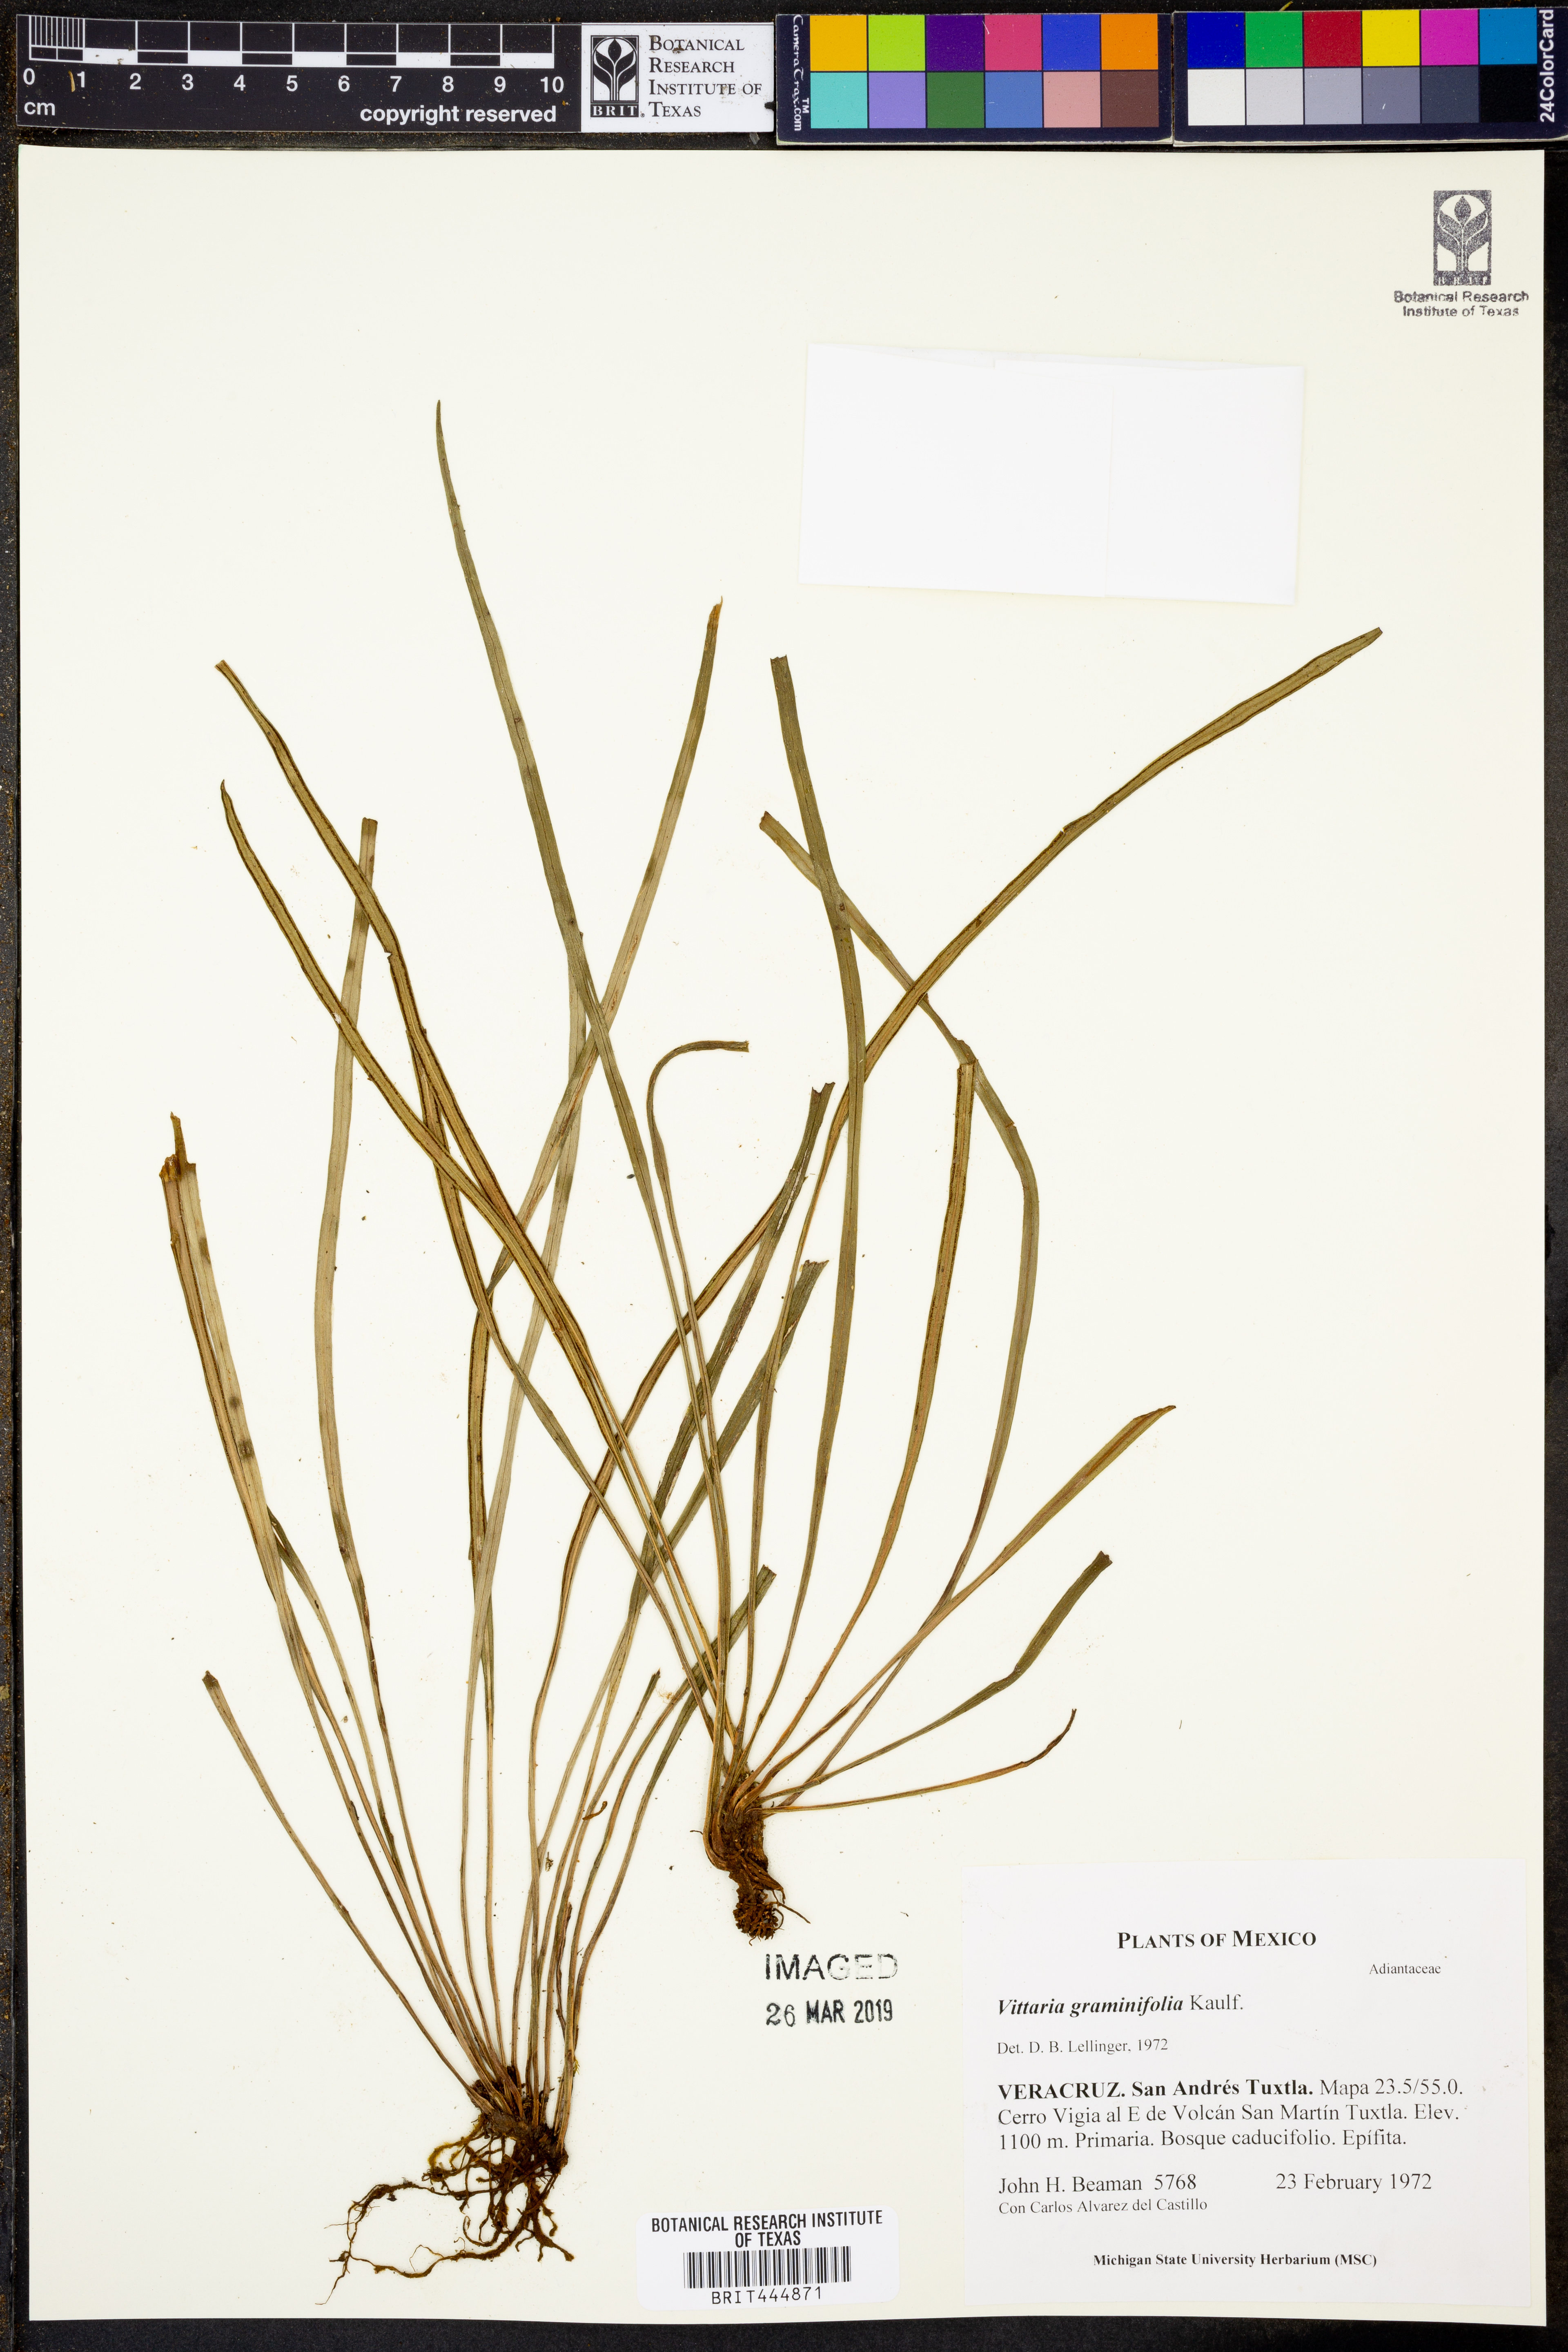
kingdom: Plantae
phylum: Tracheophyta
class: Polypodiopsida
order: Polypodiales
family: Pteridaceae
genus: Vittaria
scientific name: Vittaria graminifolia
